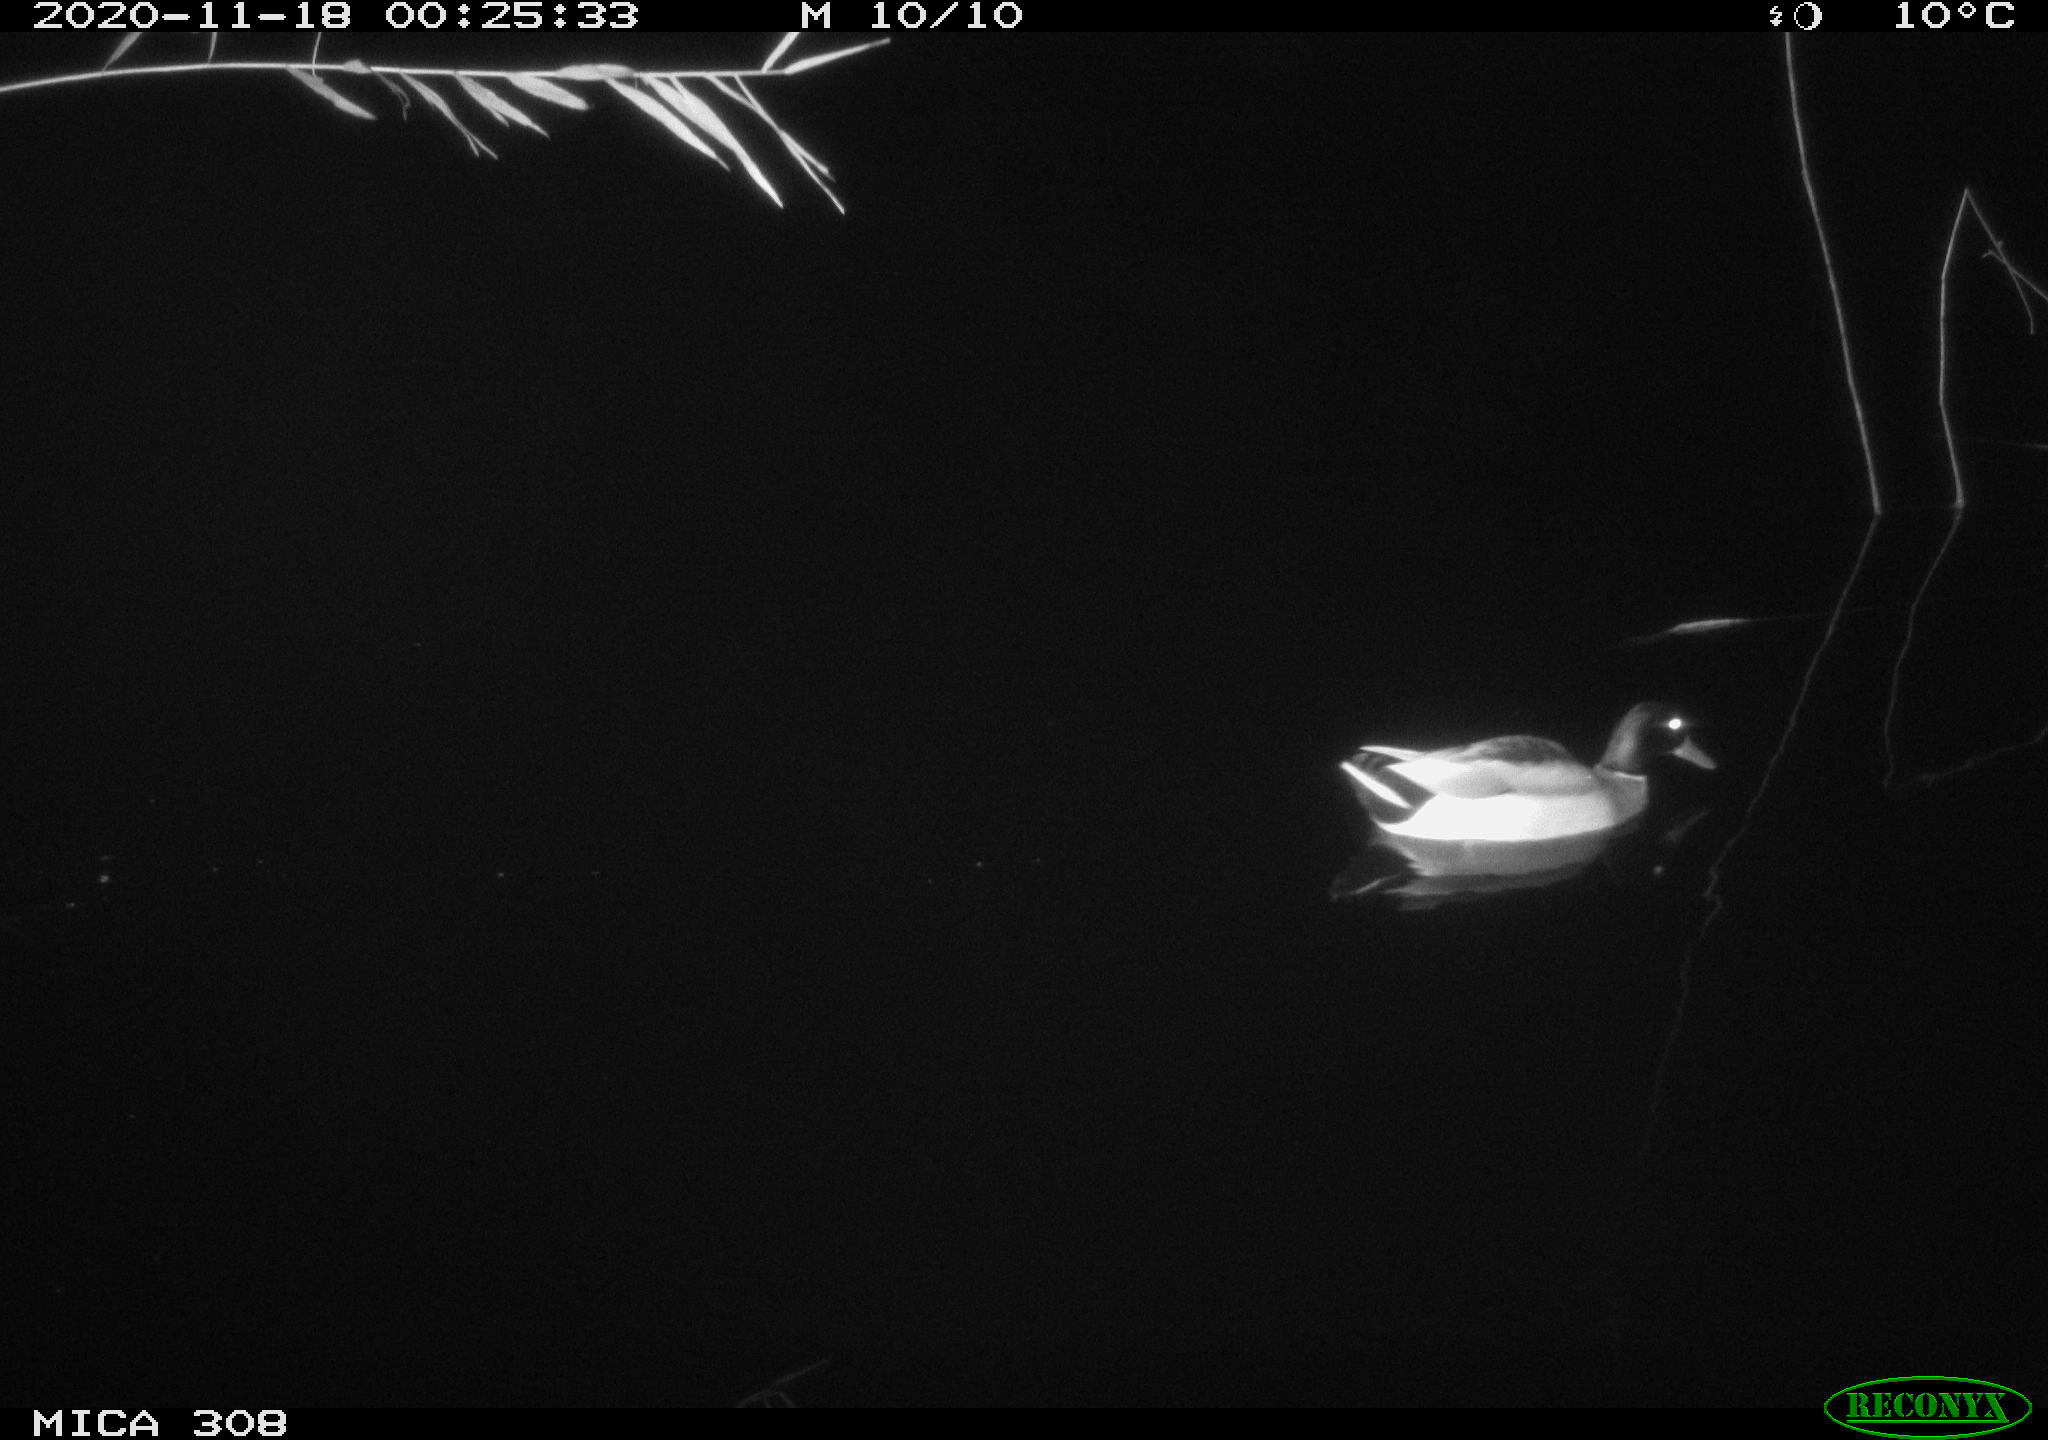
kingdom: Animalia
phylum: Chordata
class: Aves
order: Anseriformes
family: Anatidae
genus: Anas
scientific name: Anas platyrhynchos
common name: Mallard
